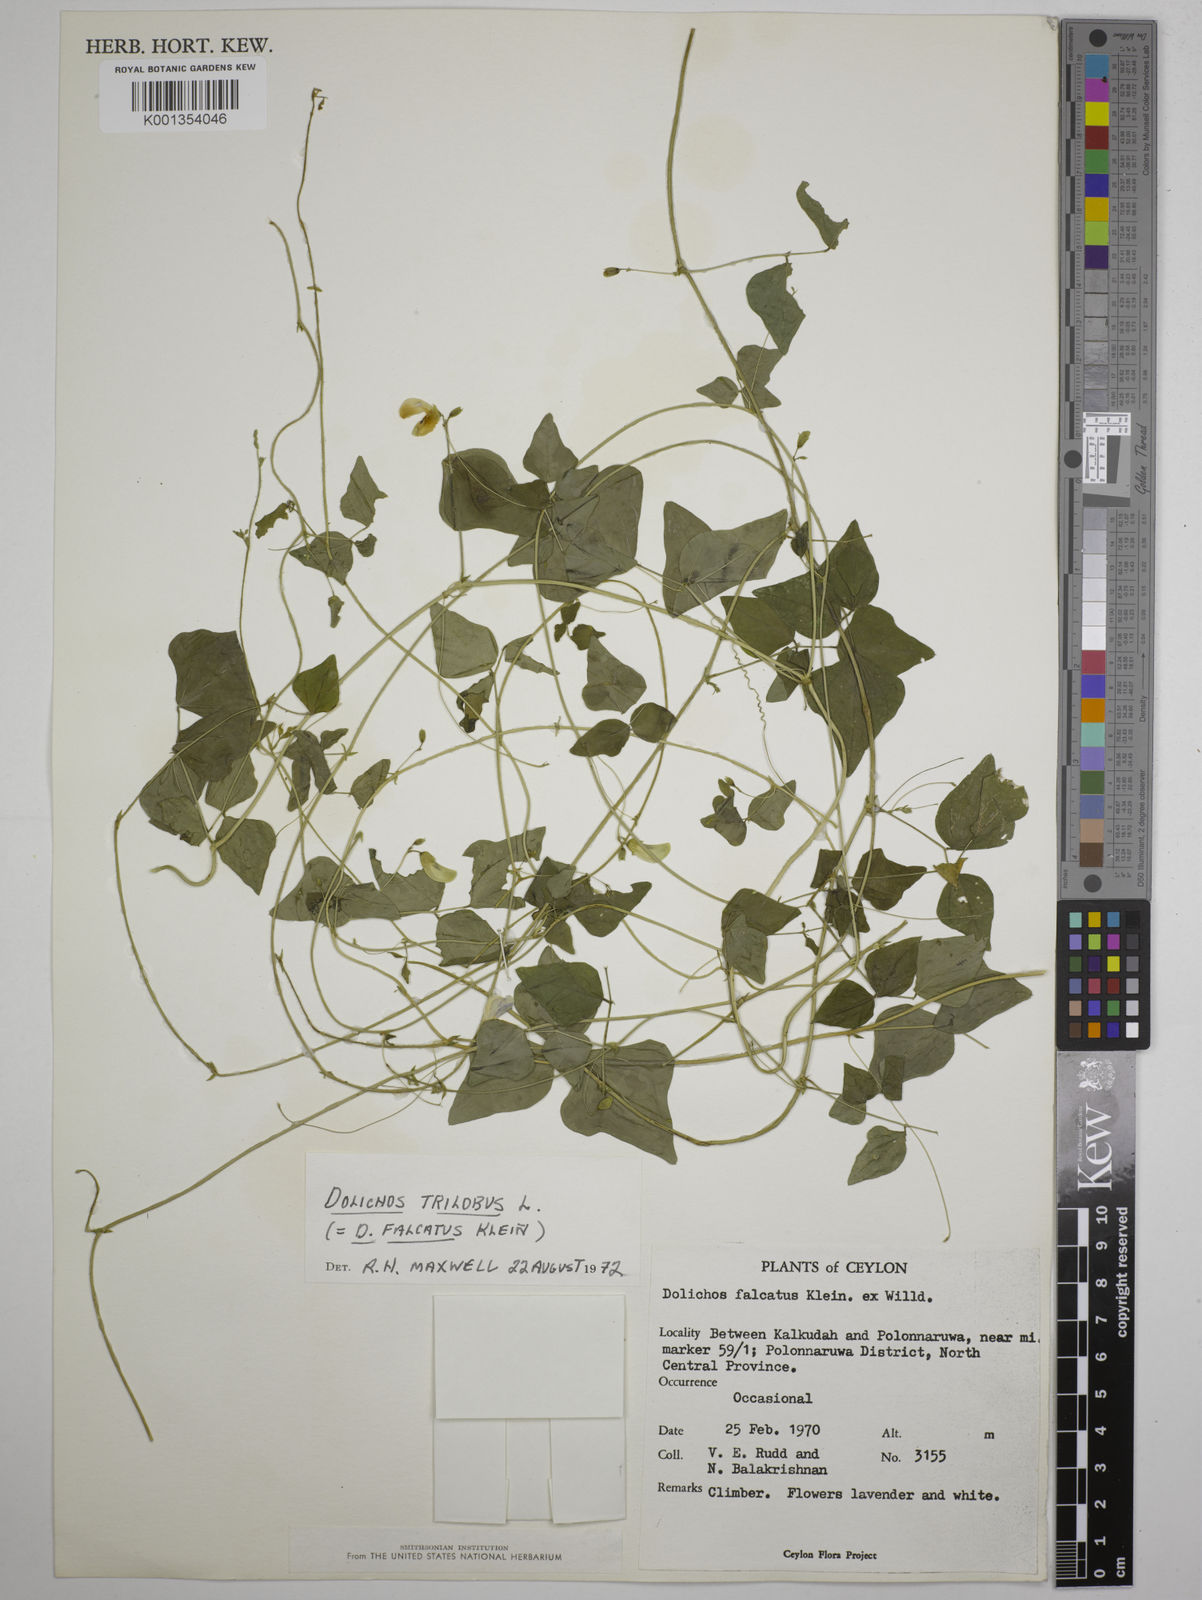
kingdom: Plantae
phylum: Tracheophyta
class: Magnoliopsida
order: Fabales
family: Fabaceae
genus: Dolichos
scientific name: Dolichos
